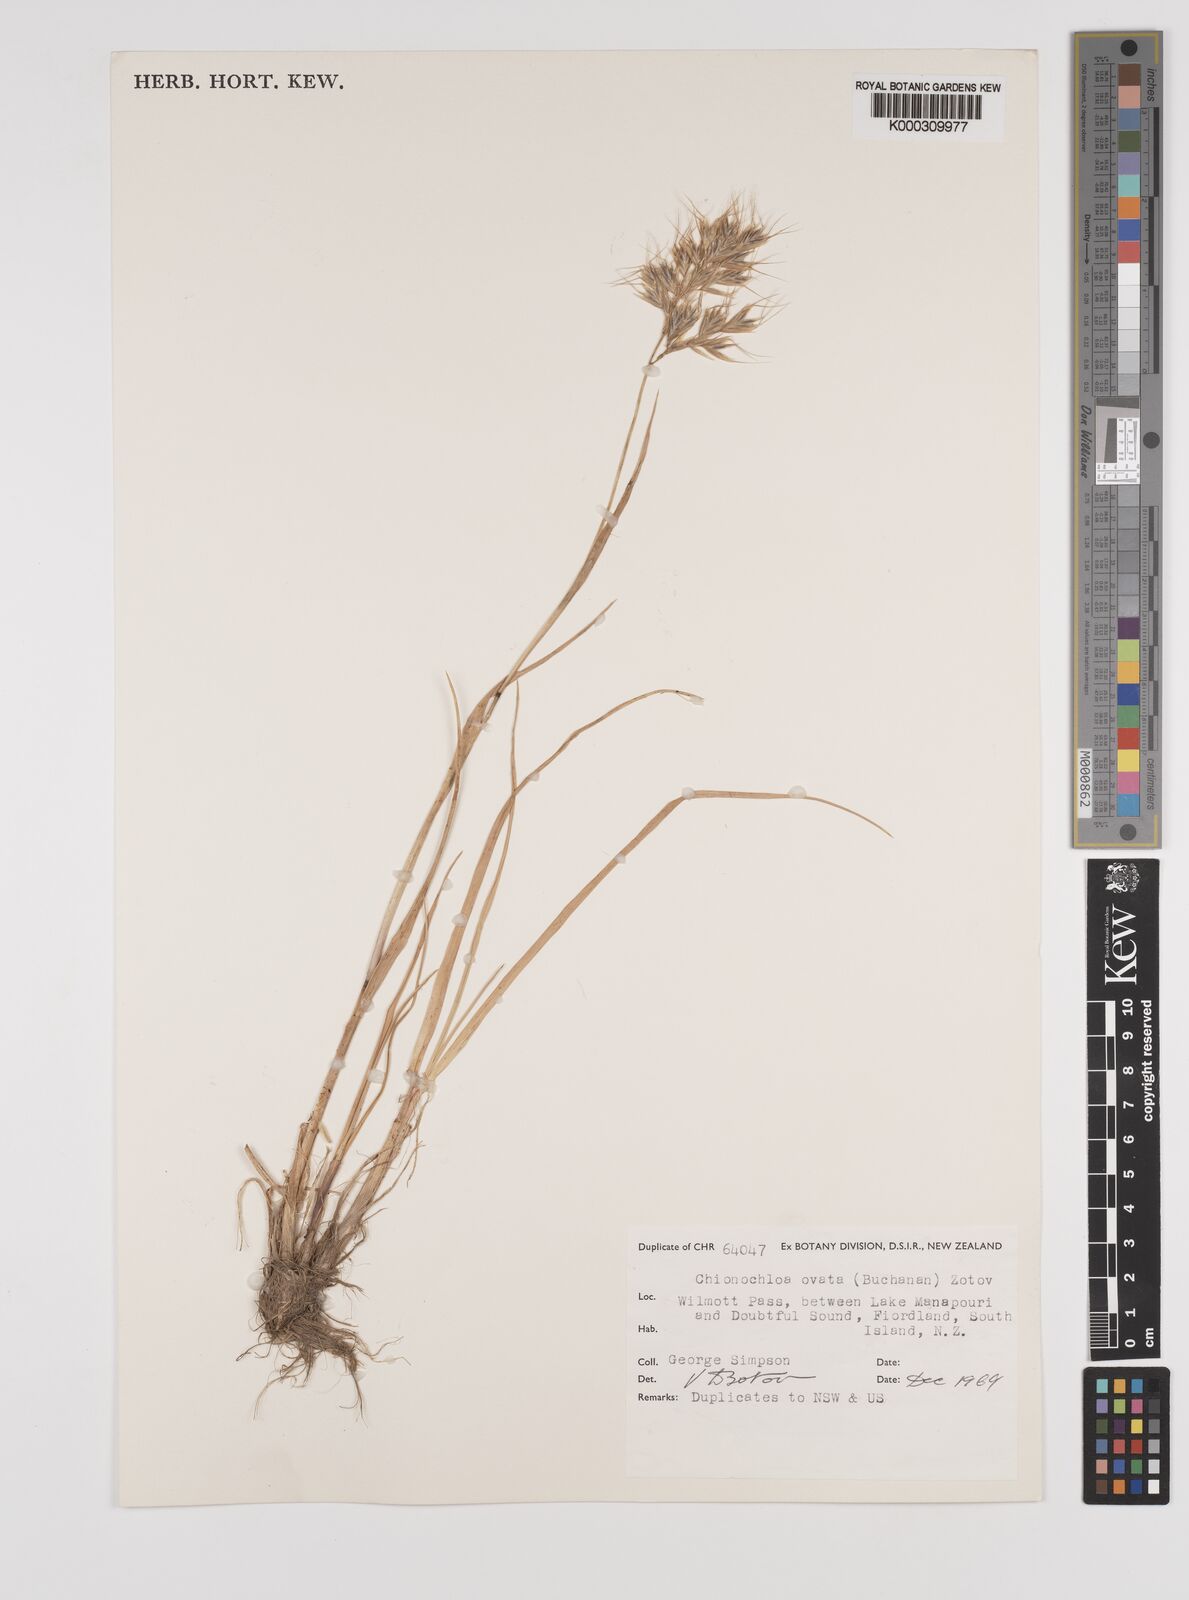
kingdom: Plantae
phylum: Tracheophyta
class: Liliopsida
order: Poales
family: Poaceae
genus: Chionochloa
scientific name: Chionochloa ovata
